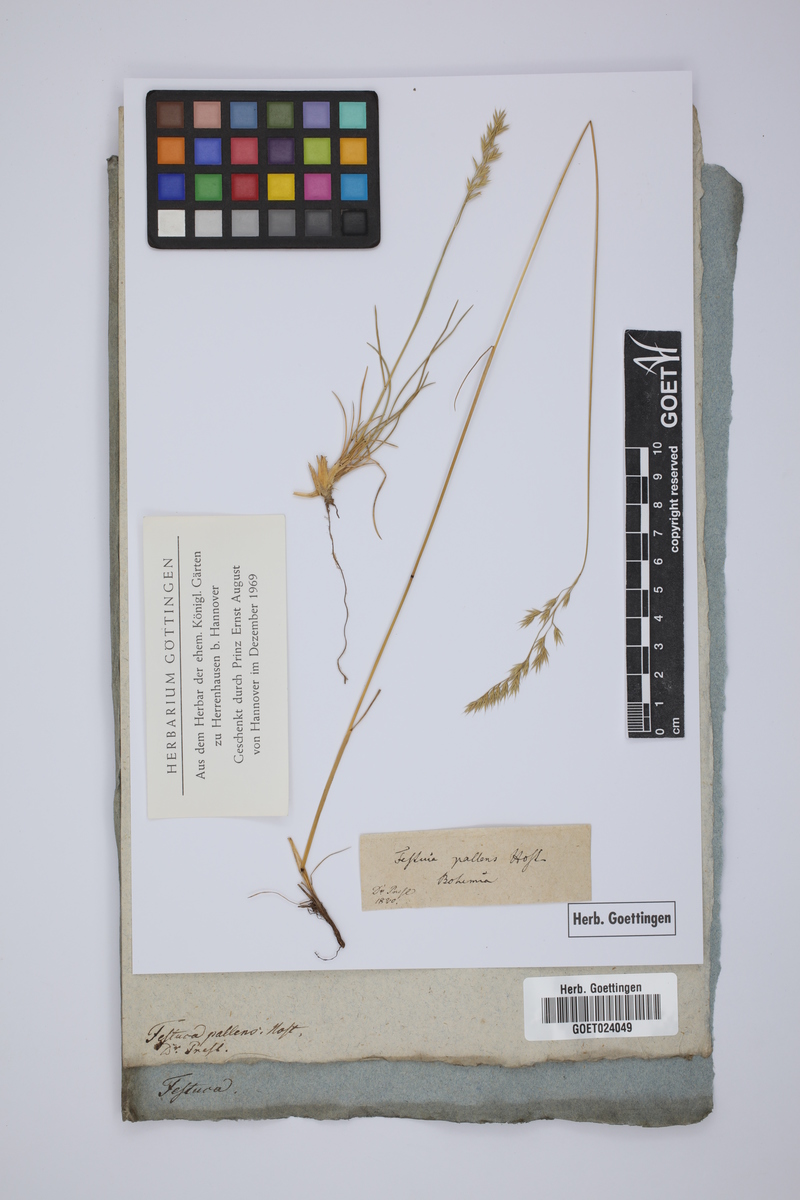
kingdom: Plantae
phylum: Tracheophyta
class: Liliopsida
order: Poales
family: Poaceae
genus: Festuca
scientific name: Festuca pallens
